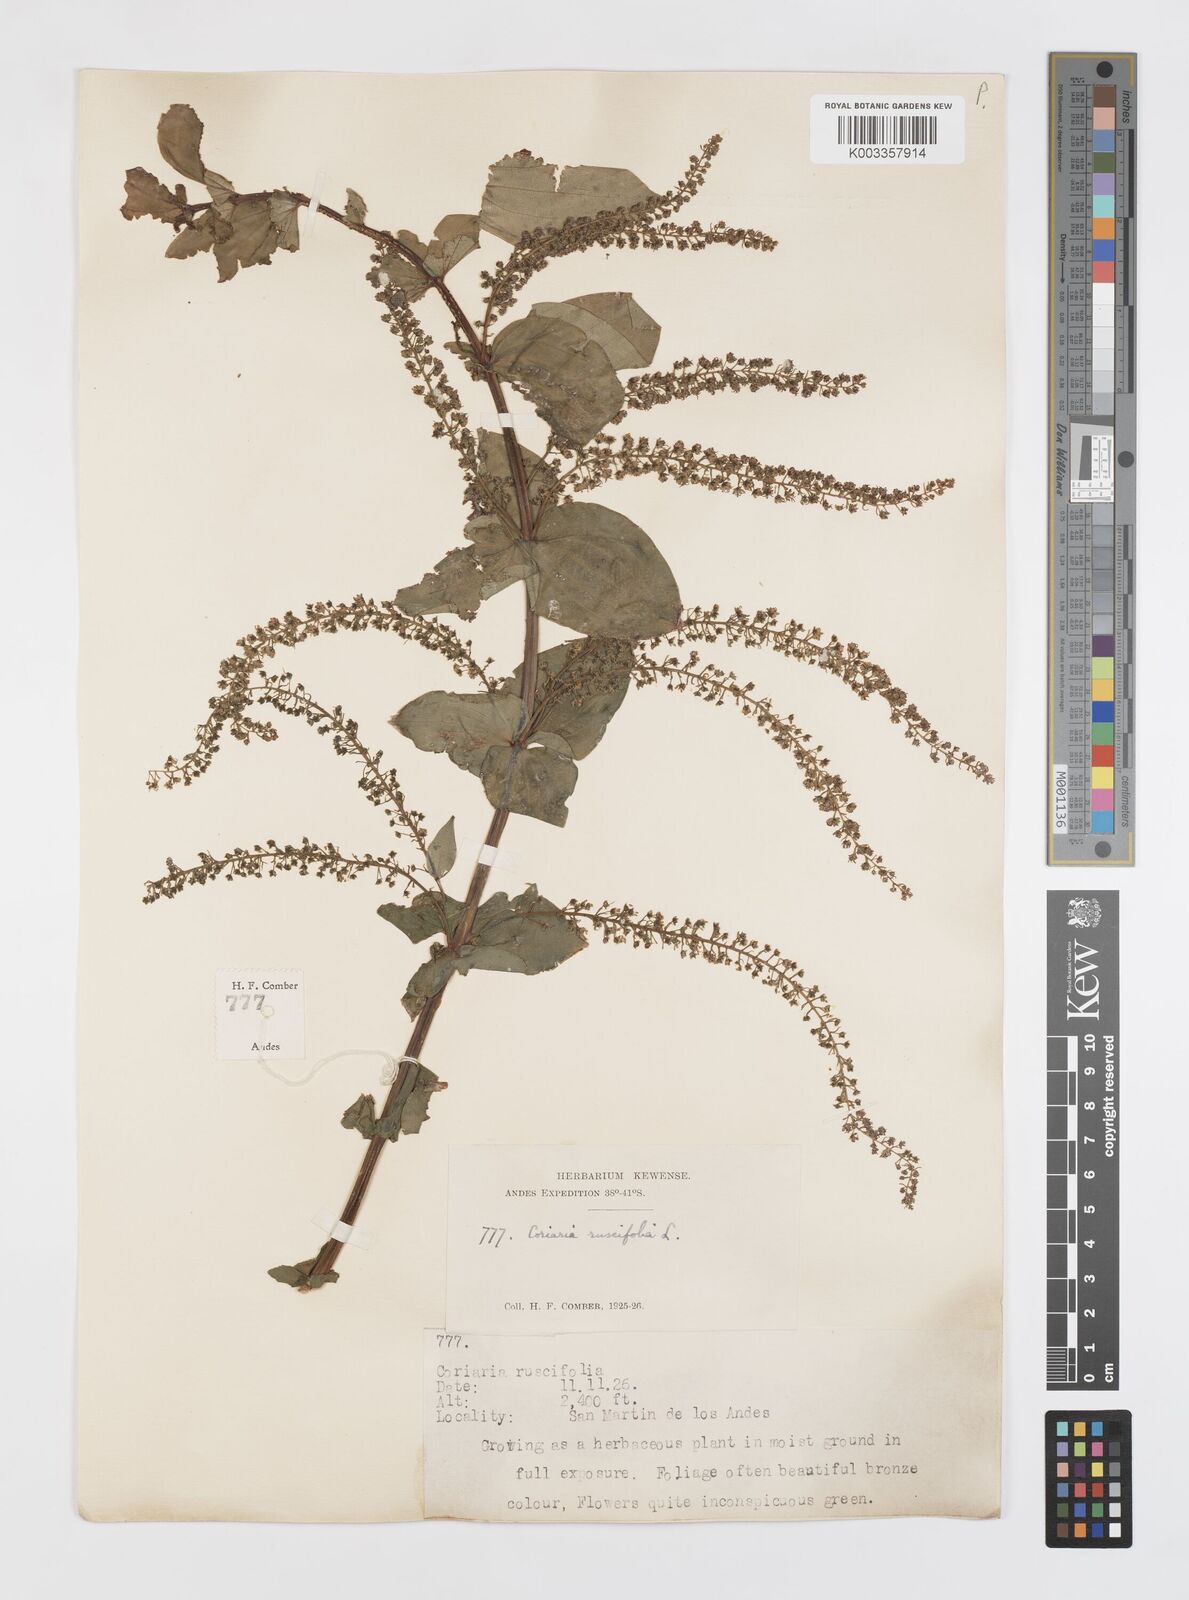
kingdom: Plantae
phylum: Tracheophyta
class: Magnoliopsida
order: Cucurbitales
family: Coriariaceae
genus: Coriaria
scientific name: Coriaria ruscifolia
